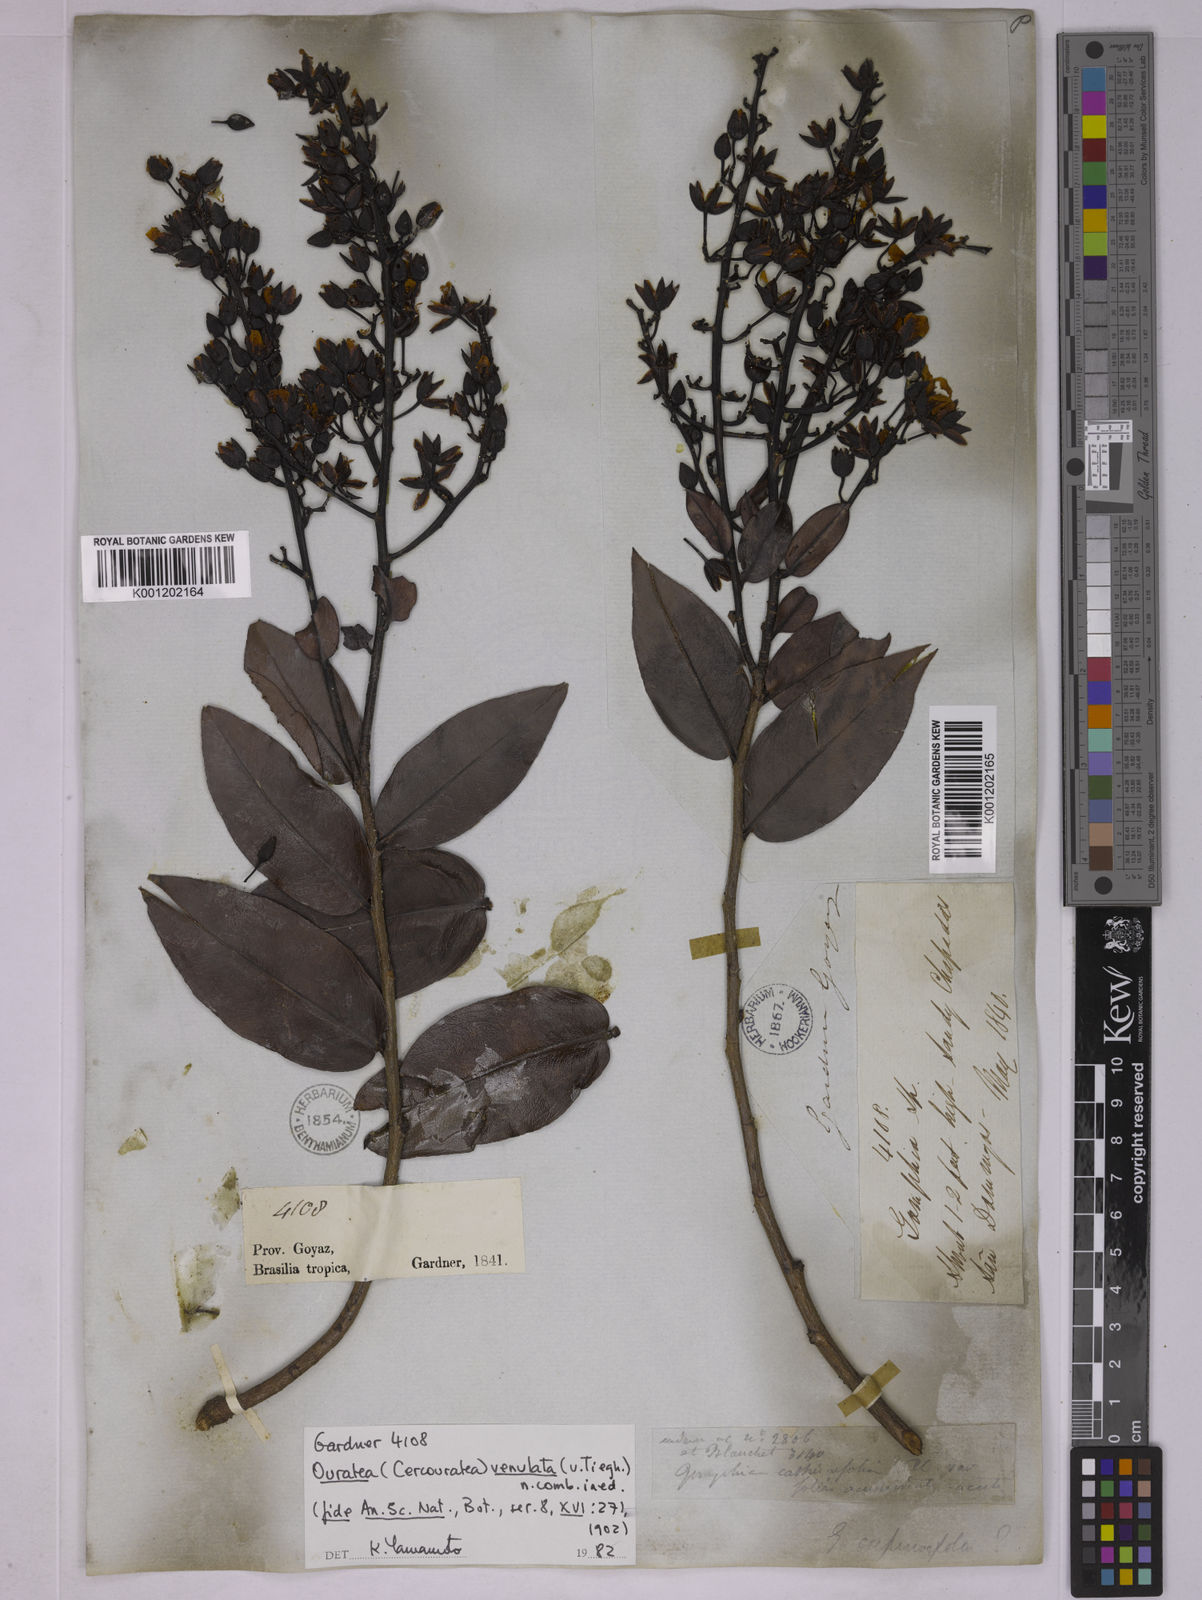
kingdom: Plantae
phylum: Tracheophyta
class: Magnoliopsida
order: Malpighiales
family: Ochnaceae
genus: Ouratea
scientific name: Ouratea venulata
